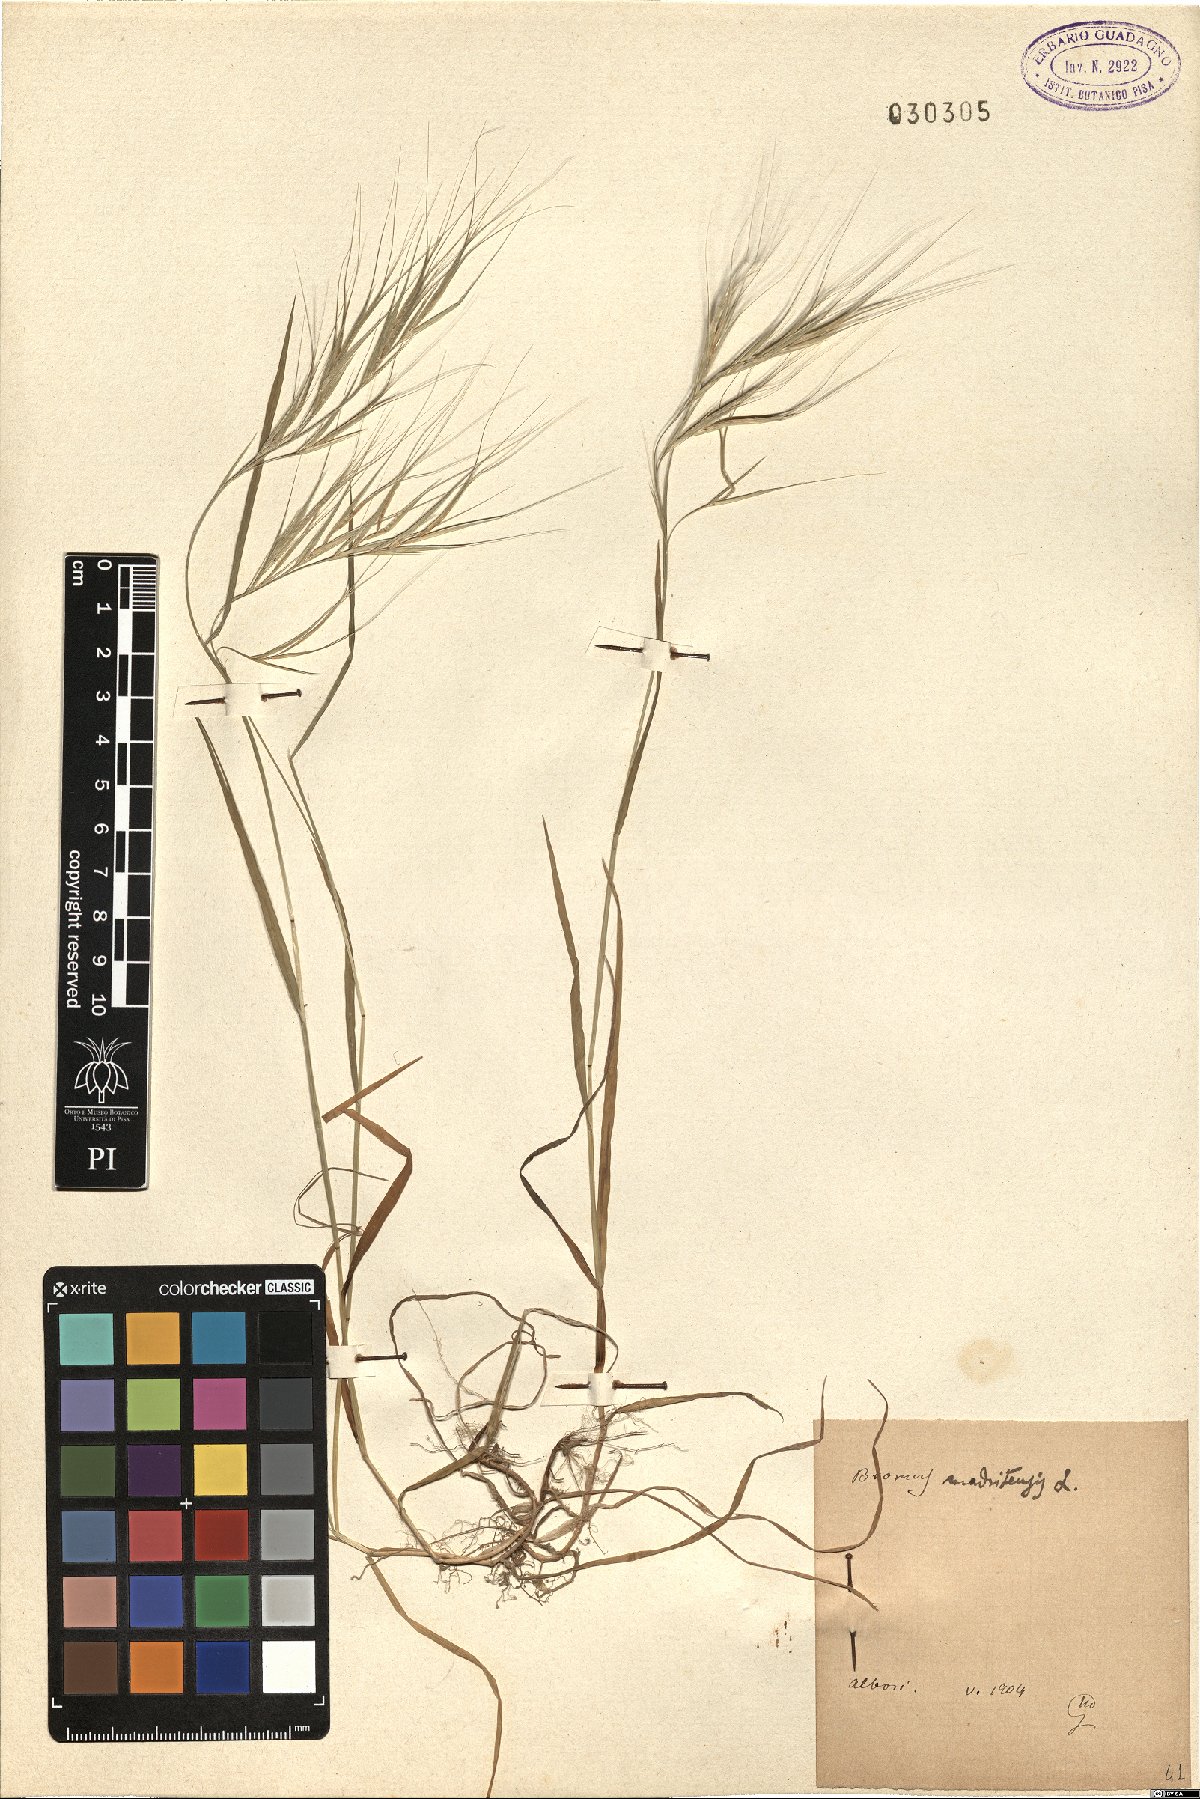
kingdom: Plantae
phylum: Tracheophyta
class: Liliopsida
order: Poales
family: Poaceae
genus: Bromus
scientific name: Bromus madritensis
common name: Compact brome
